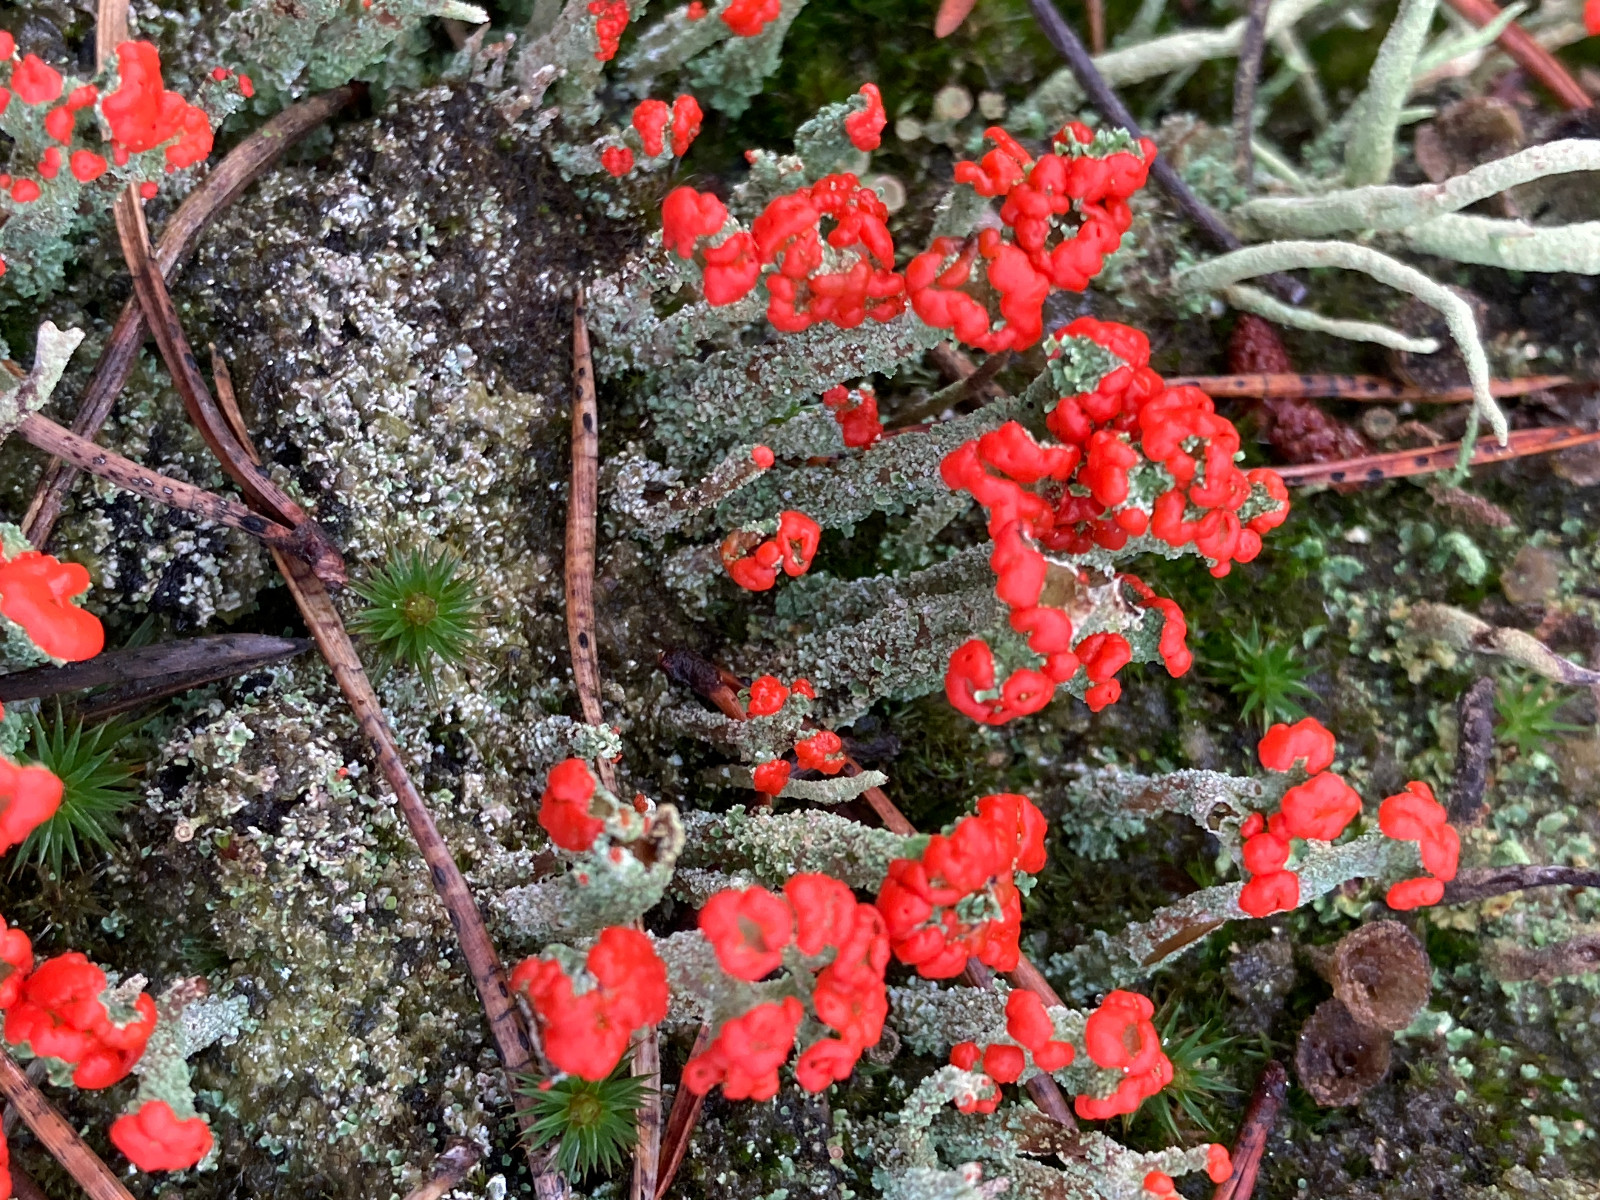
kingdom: Fungi
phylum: Ascomycota
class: Lecanoromycetes
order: Lecanorales
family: Cladoniaceae
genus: Cladonia
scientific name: Cladonia floerkeana
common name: lakrød bægerlav
